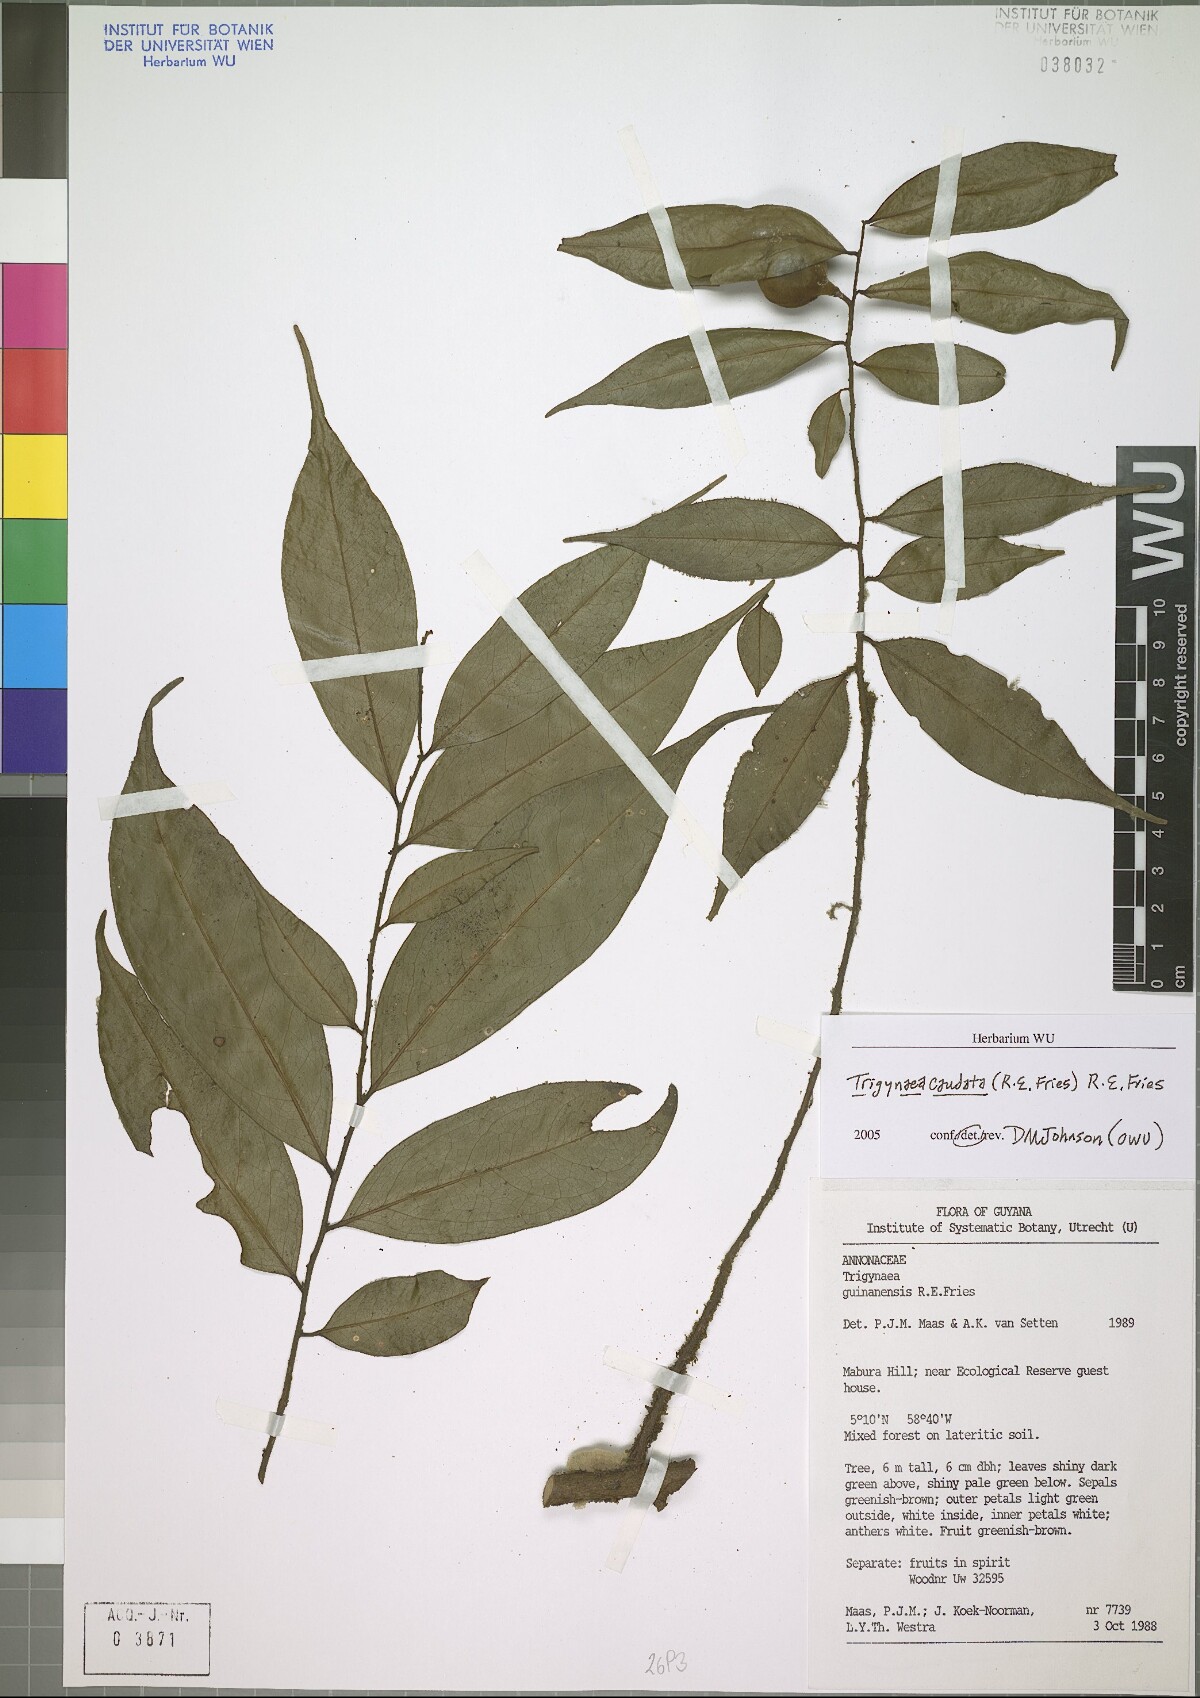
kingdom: Plantae
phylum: Tracheophyta
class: Magnoliopsida
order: Magnoliales
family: Annonaceae
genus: Trigynaea
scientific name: Trigynaea caudata
